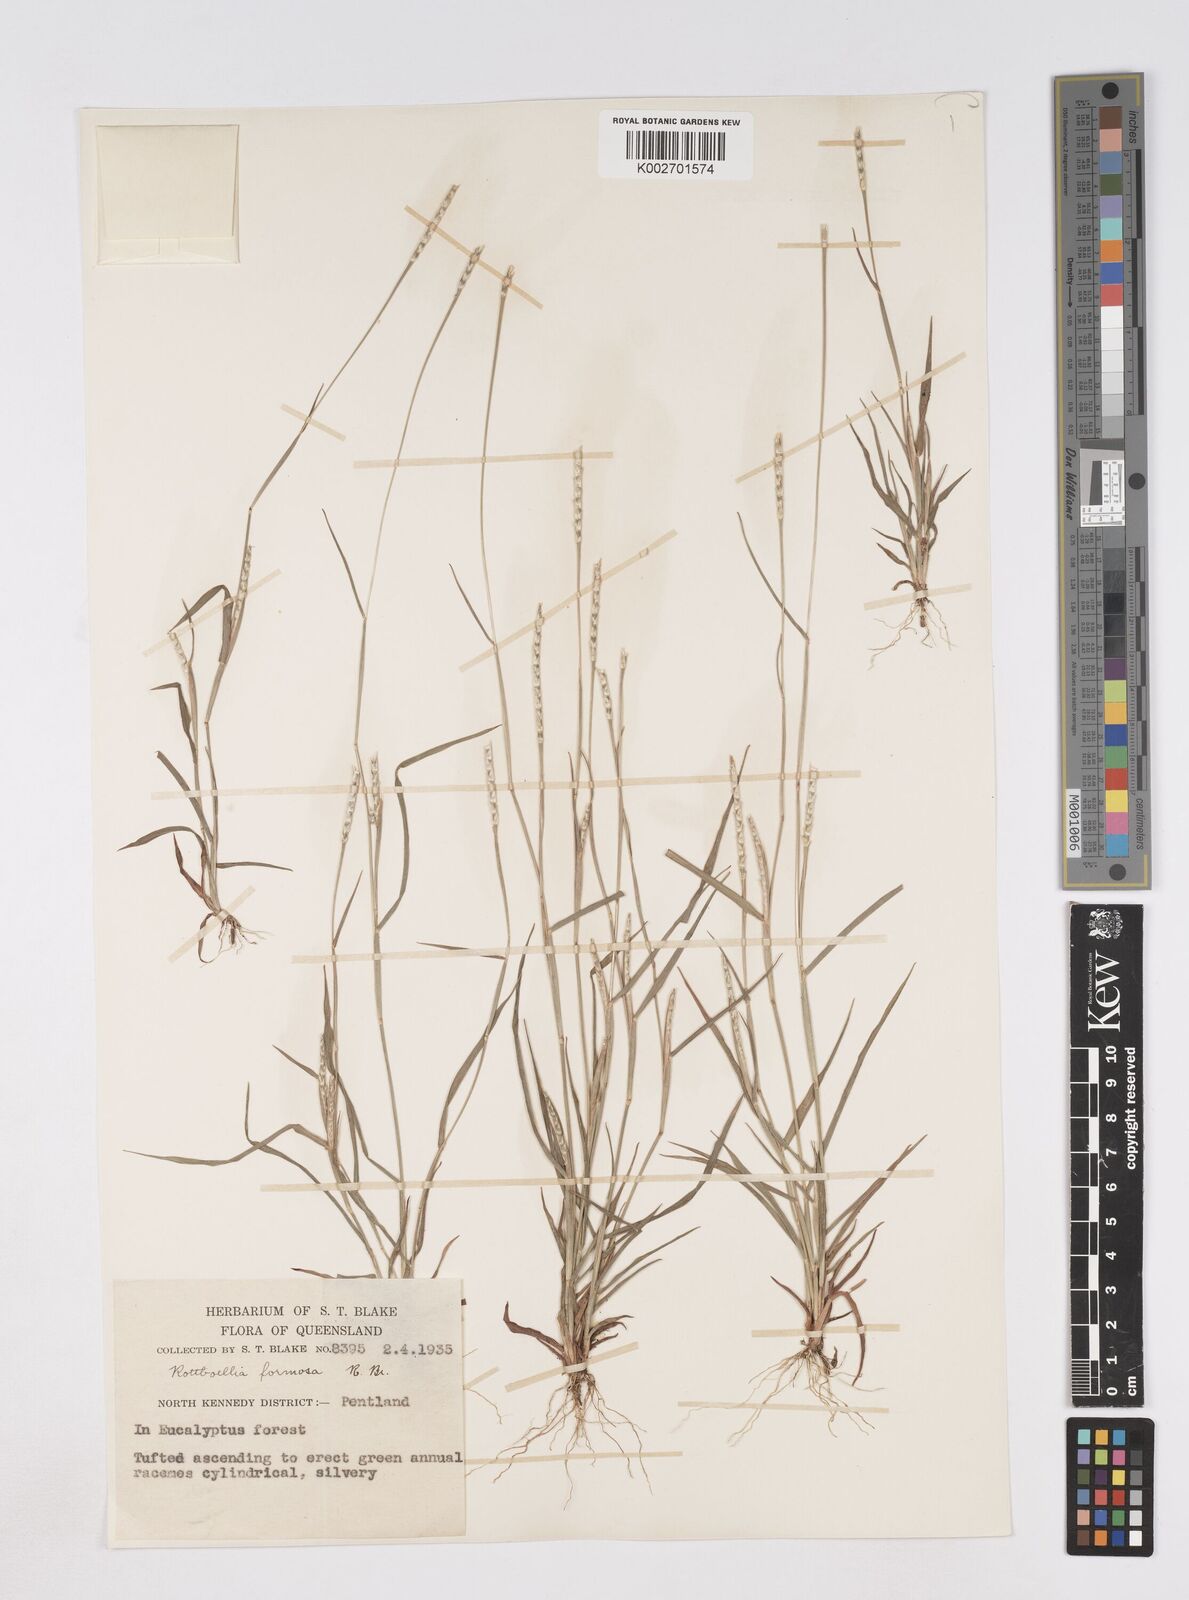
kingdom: Plantae
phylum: Tracheophyta
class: Liliopsida
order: Poales
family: Poaceae
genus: Heteropholis
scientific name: Heteropholis
